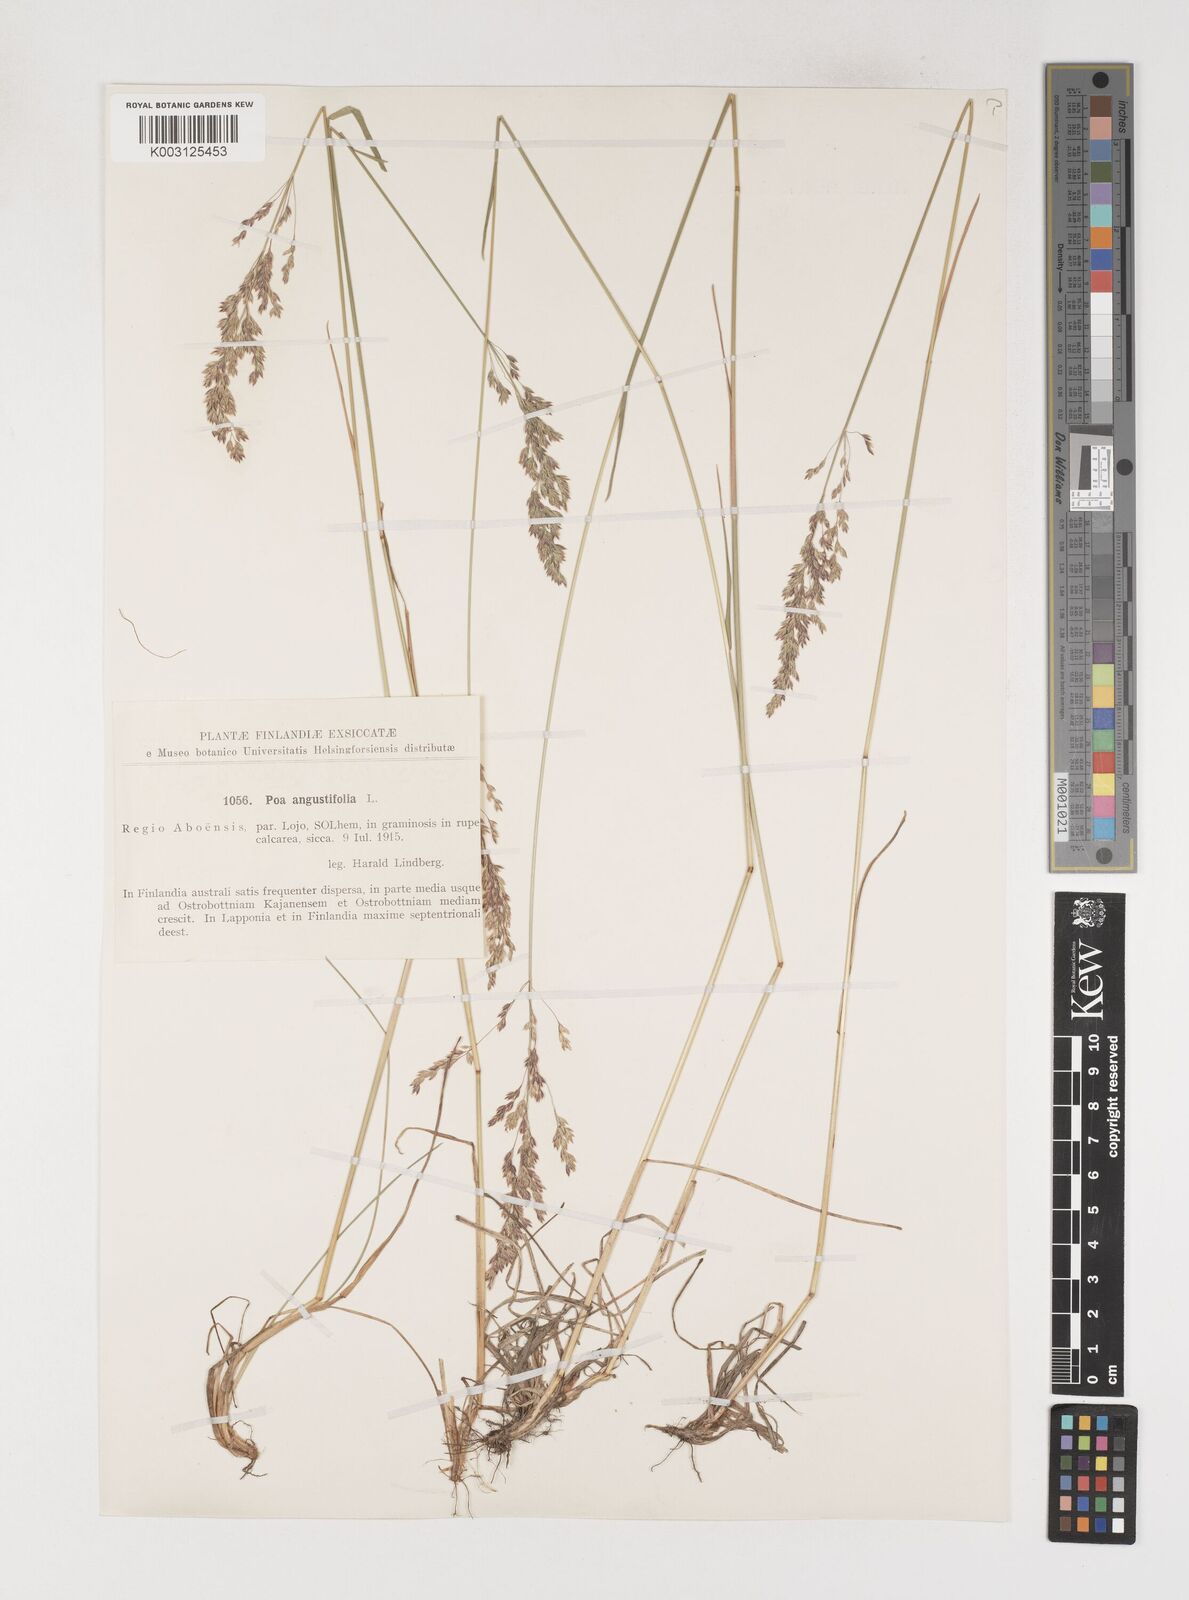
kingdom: Plantae
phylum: Tracheophyta
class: Liliopsida
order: Poales
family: Poaceae
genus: Poa
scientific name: Poa angustifolia
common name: Narrow-leaved meadow-grass
